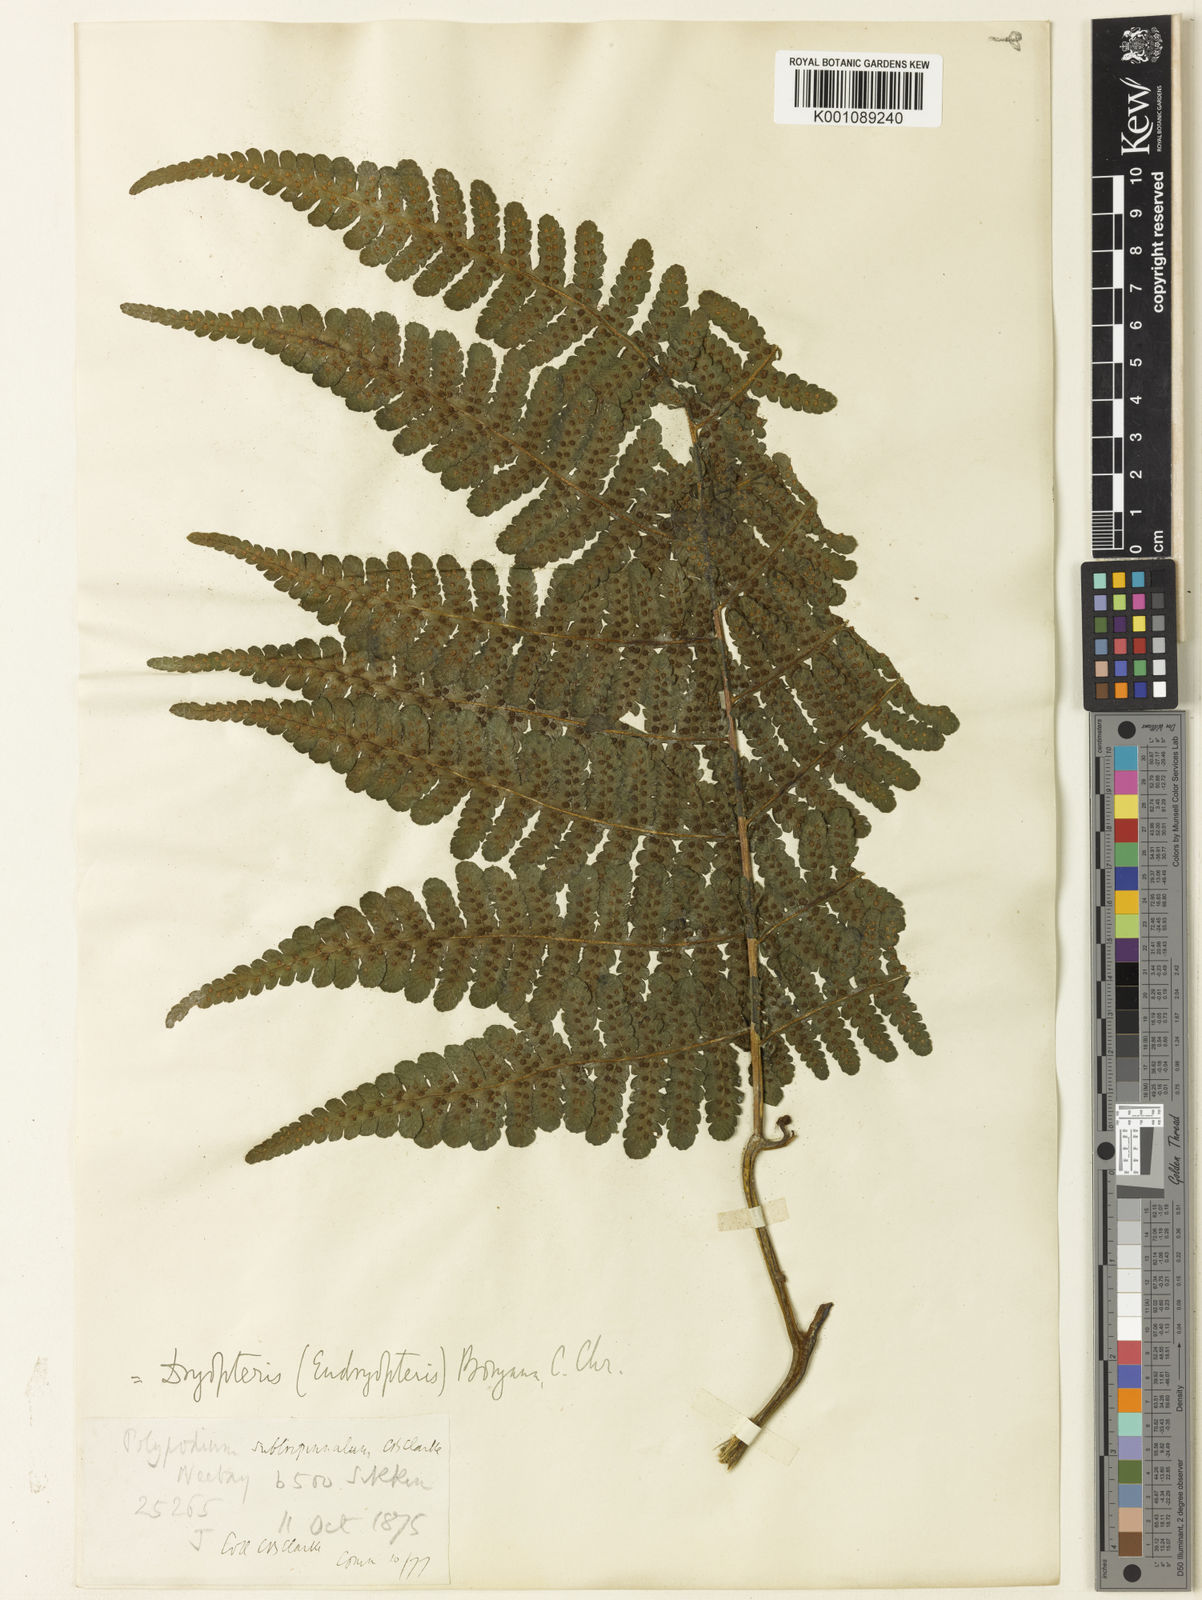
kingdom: Plantae
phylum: Tracheophyta
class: Polypodiopsida
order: Polypodiales
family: Athyriaceae
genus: Deparia
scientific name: Deparia boryana
